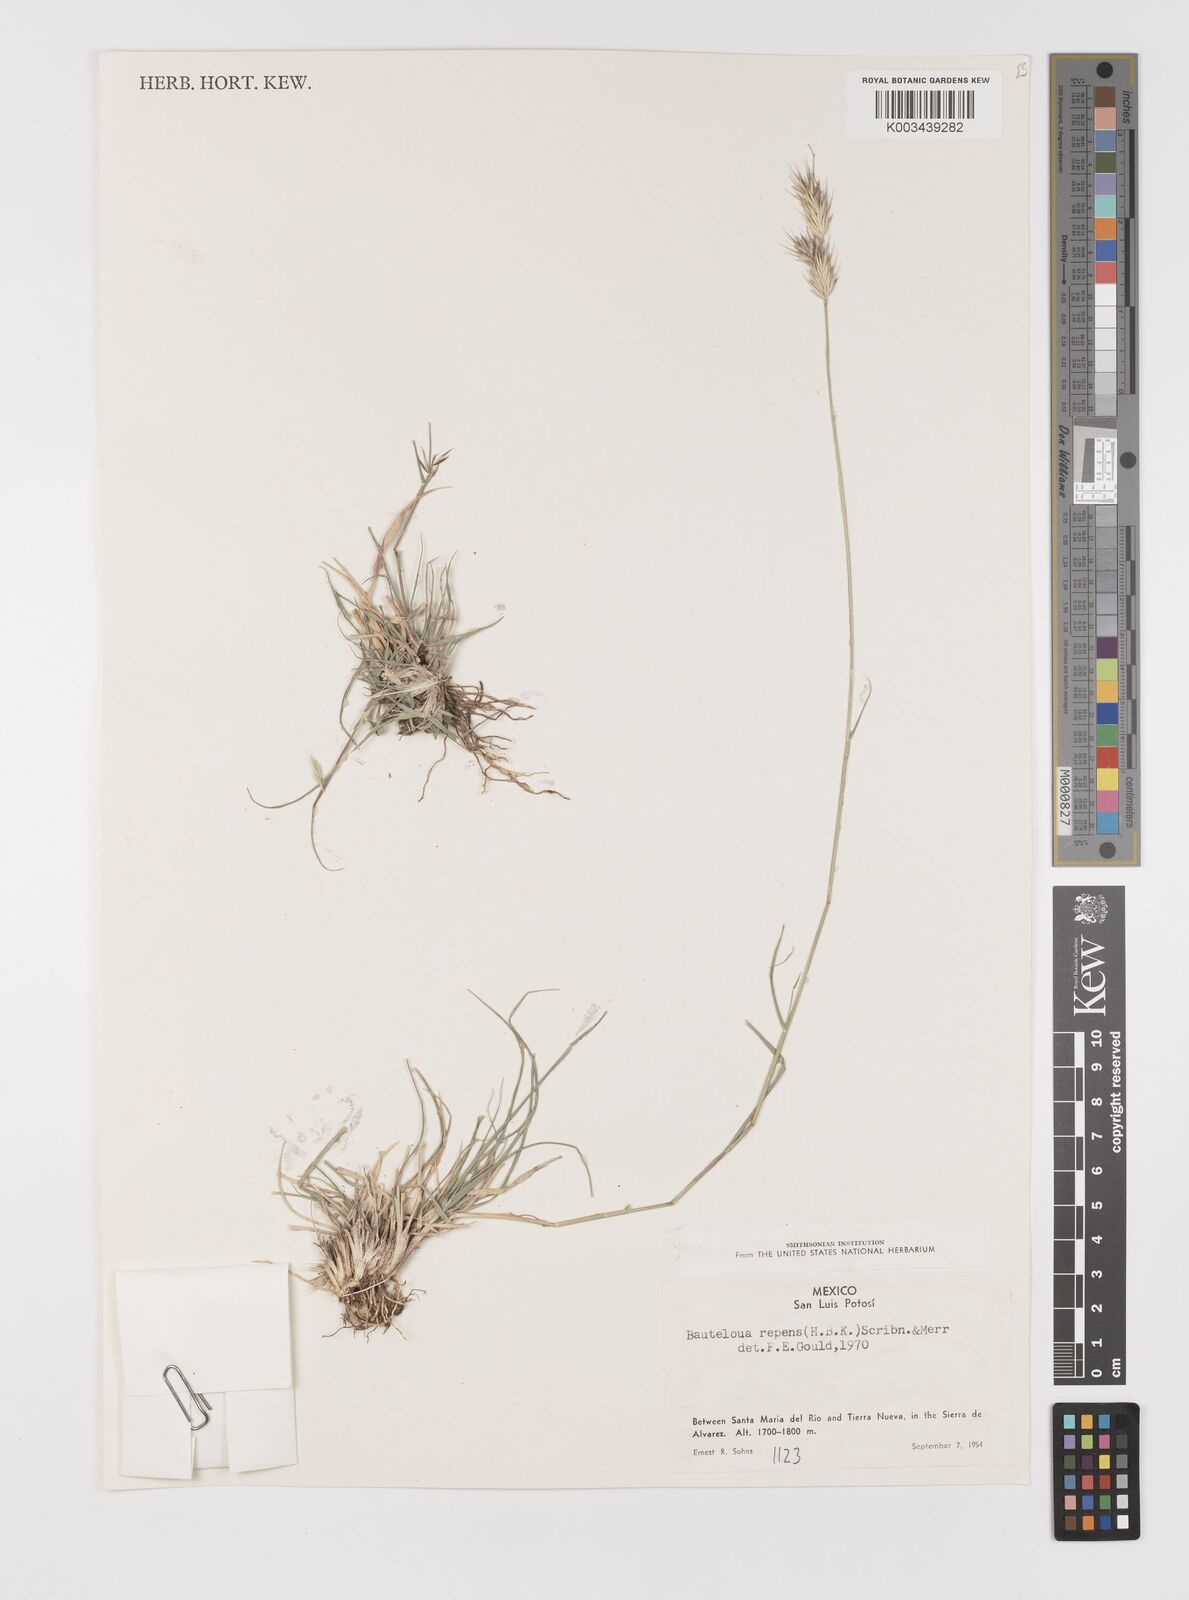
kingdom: Plantae
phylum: Tracheophyta
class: Liliopsida
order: Poales
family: Poaceae
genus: Bouteloua
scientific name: Bouteloua repens
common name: Slender grama
